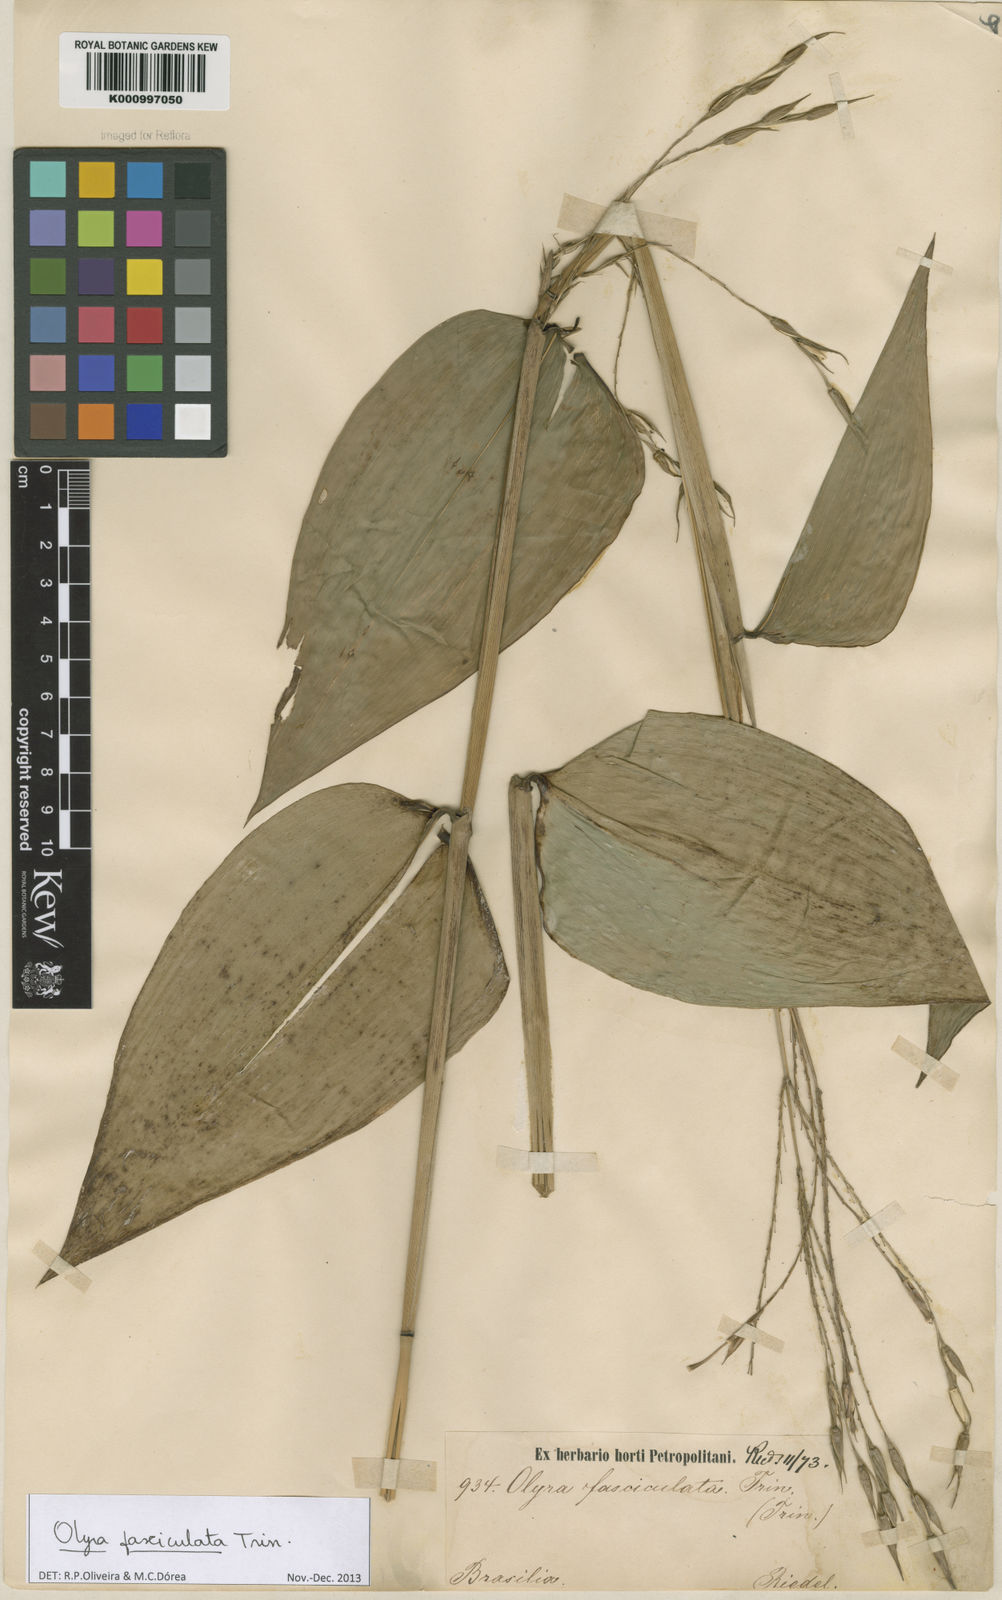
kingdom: Plantae
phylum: Tracheophyta
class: Liliopsida
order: Poales
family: Poaceae
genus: Olyra
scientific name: Olyra fasciculata
